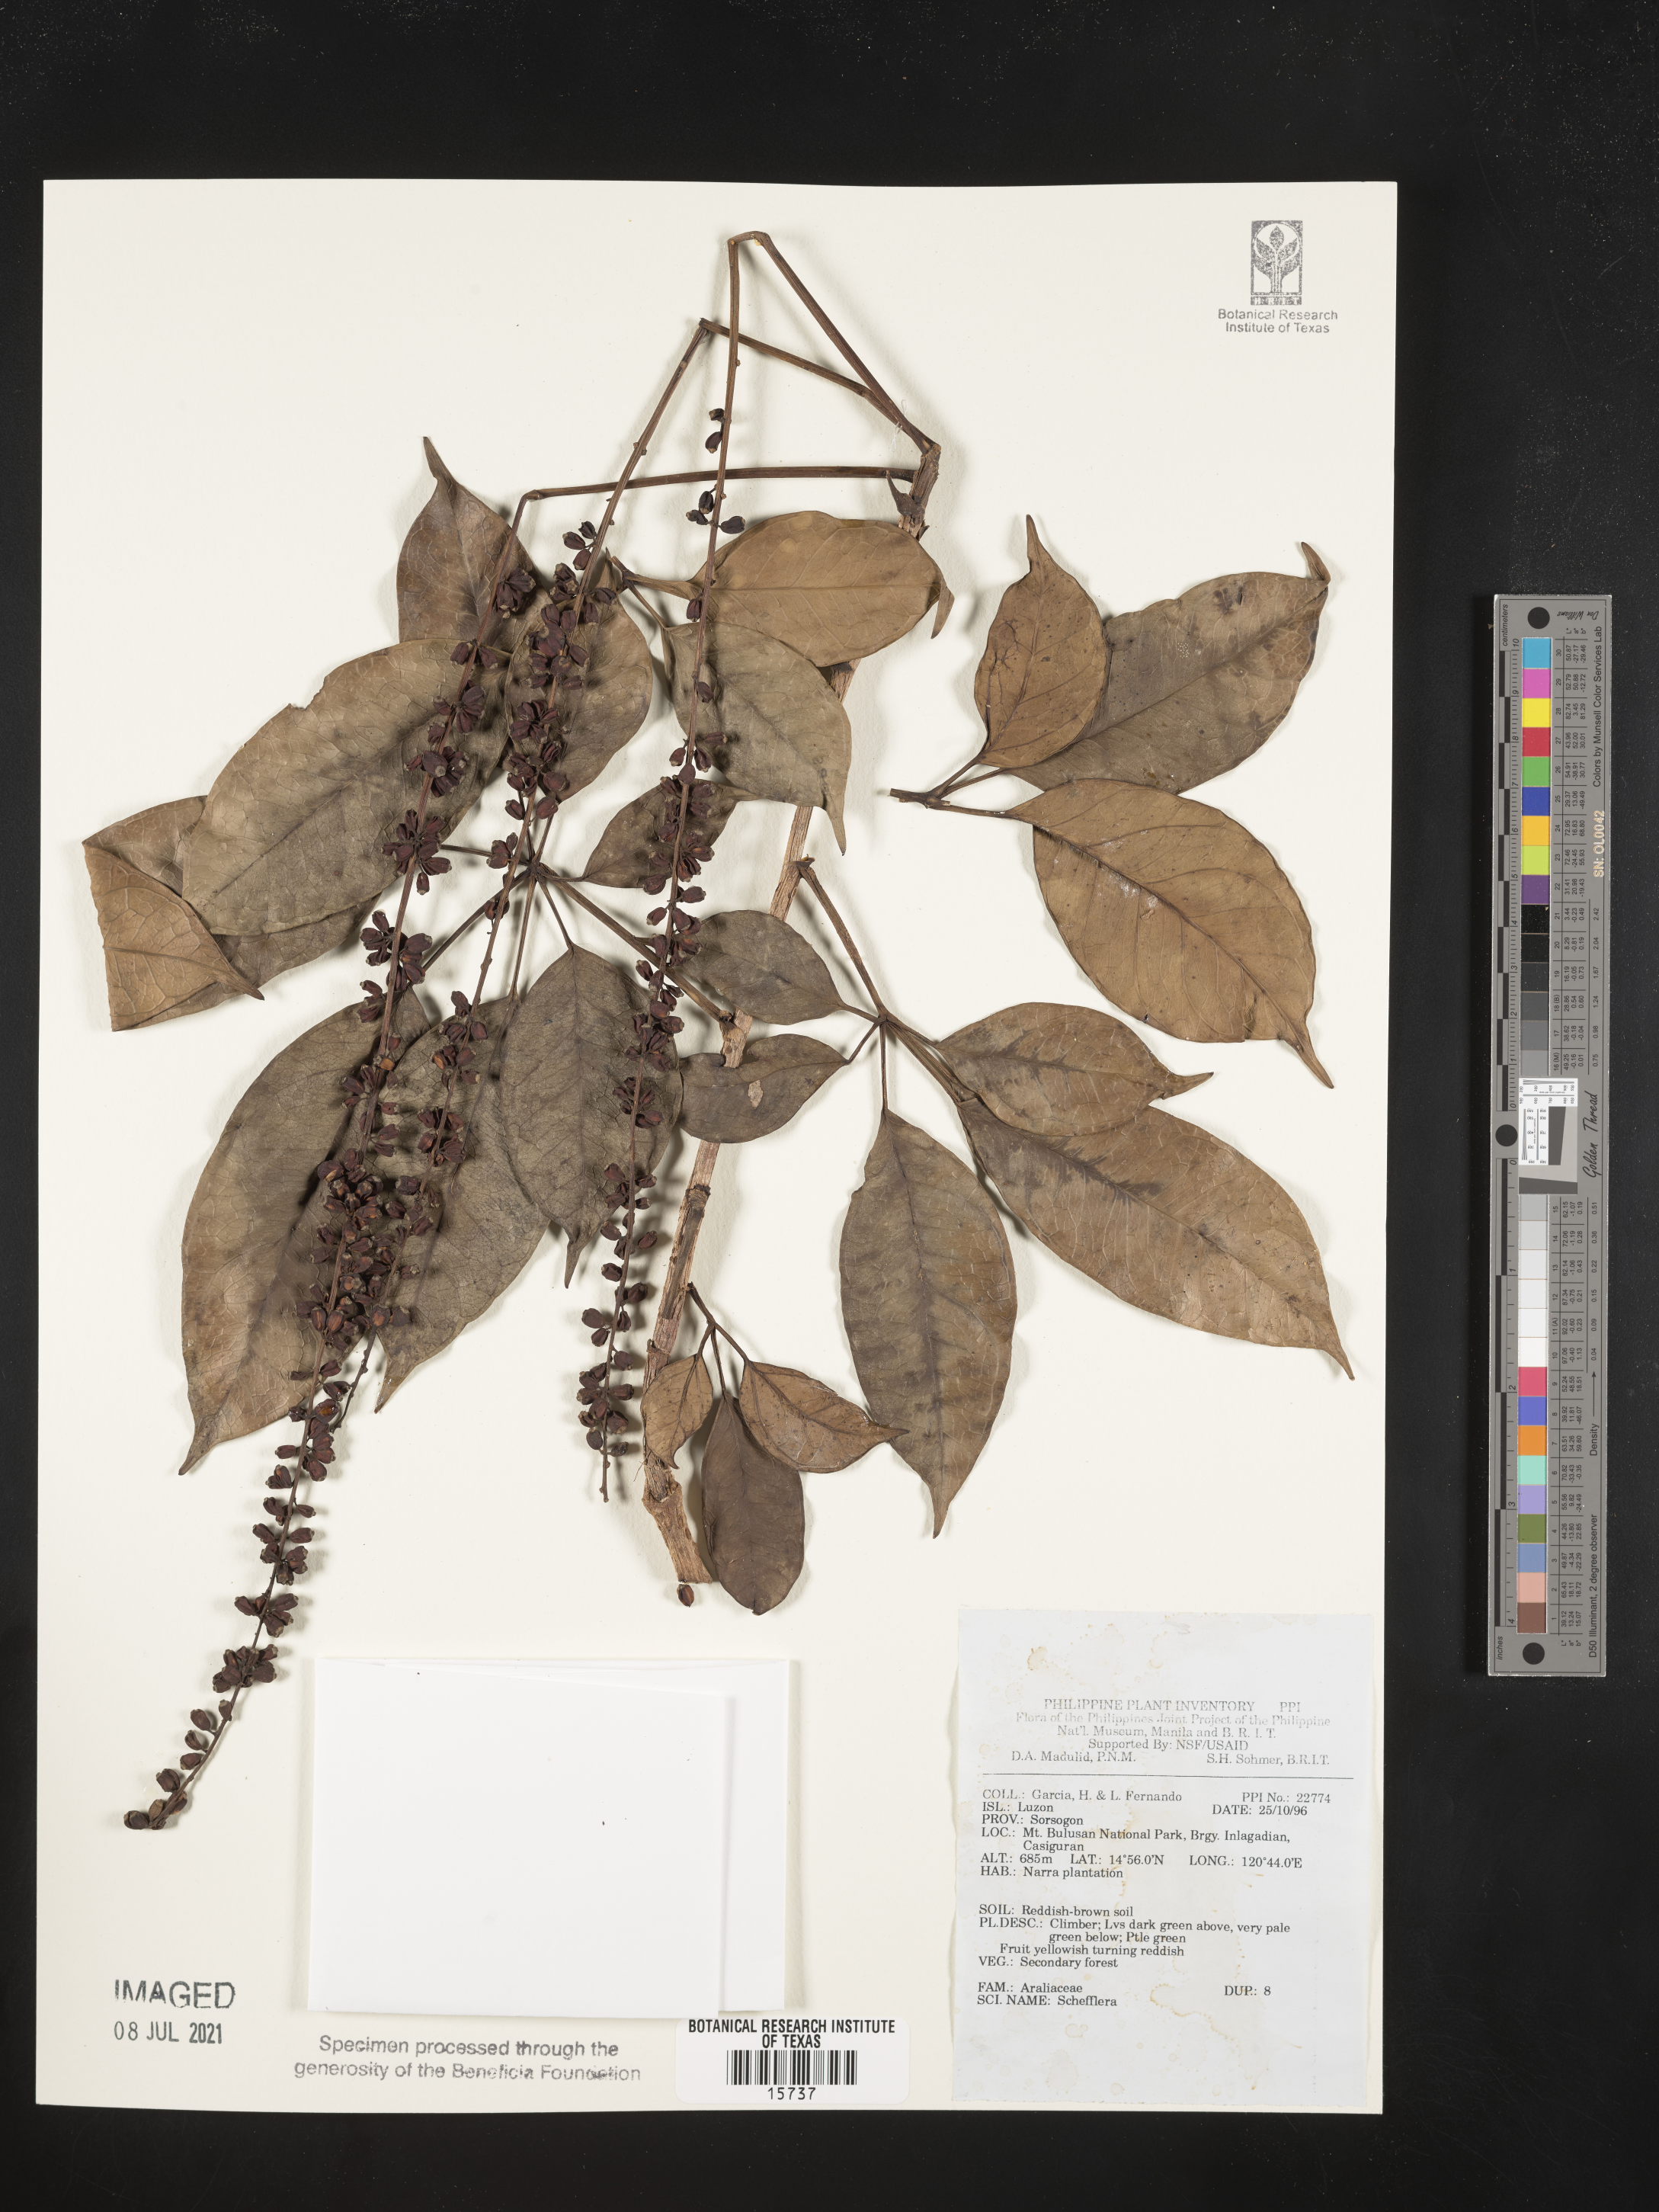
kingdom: Plantae
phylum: Tracheophyta
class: Magnoliopsida
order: Apiales
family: Araliaceae
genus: Schefflera
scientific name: Schefflera
